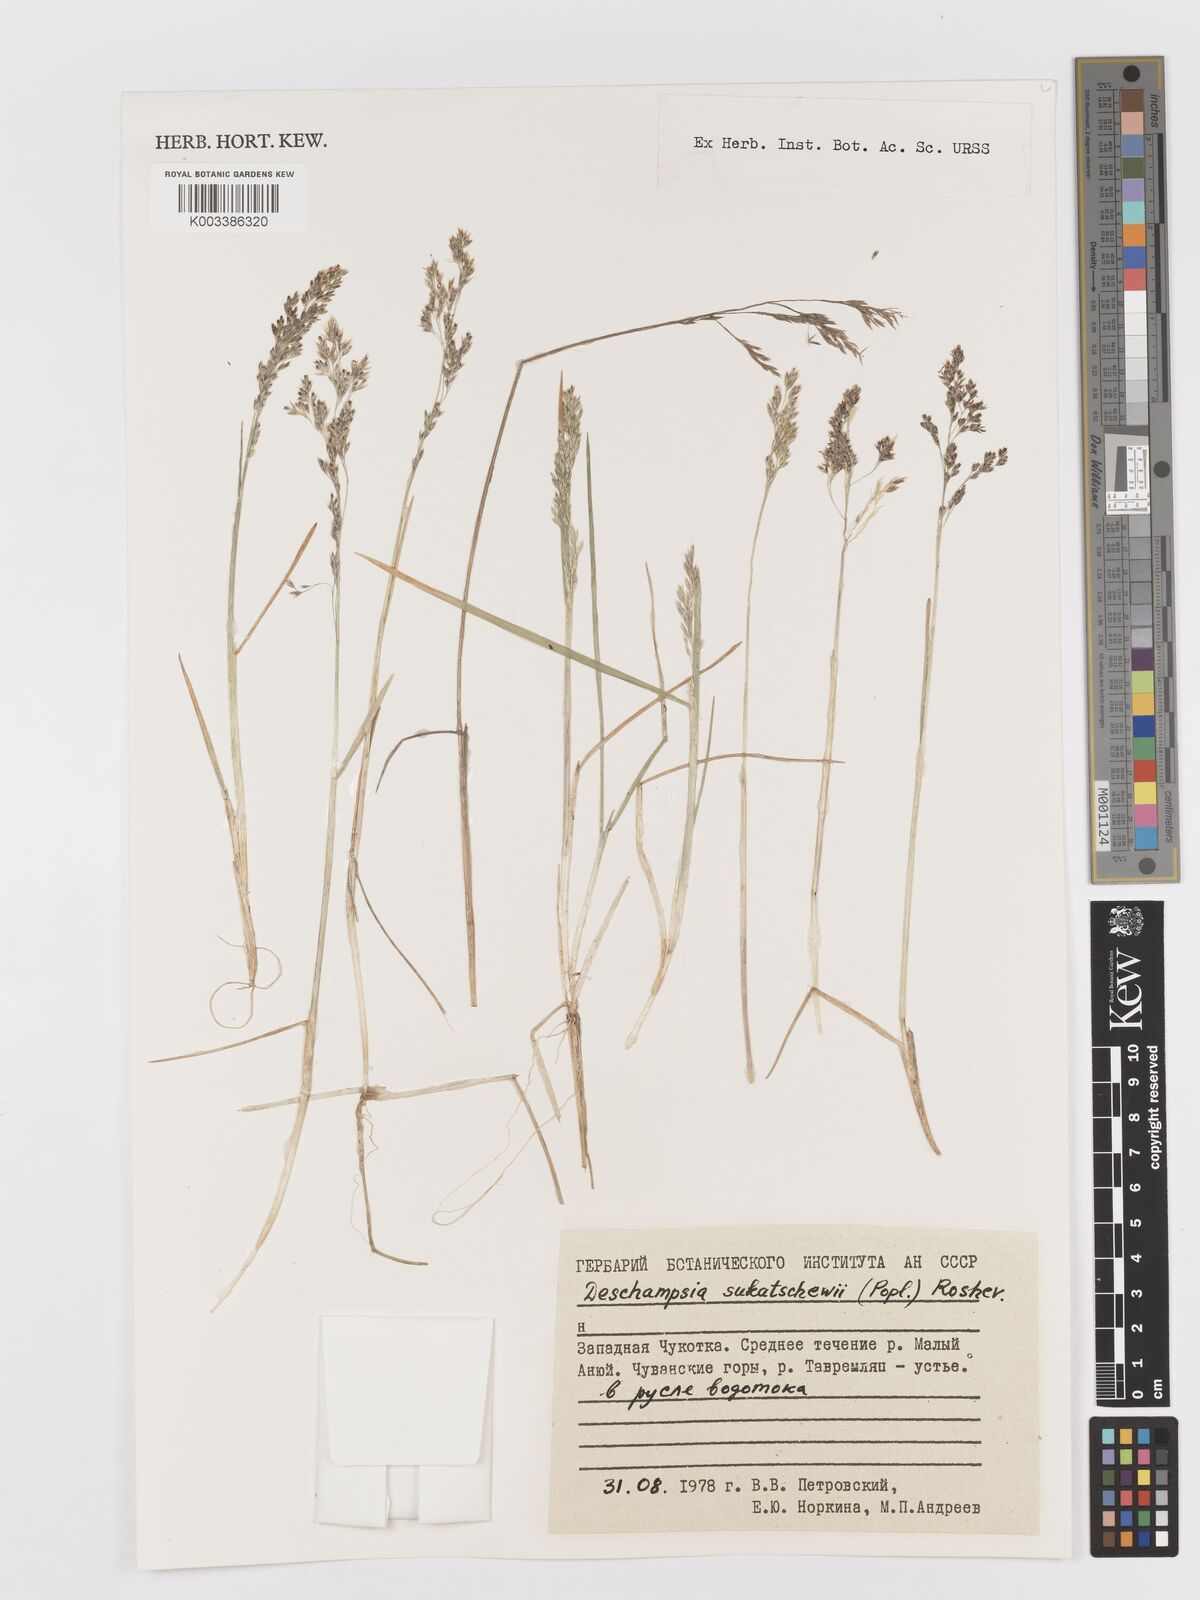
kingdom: Plantae
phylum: Tracheophyta
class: Liliopsida
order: Poales
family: Poaceae
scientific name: Poaceae
